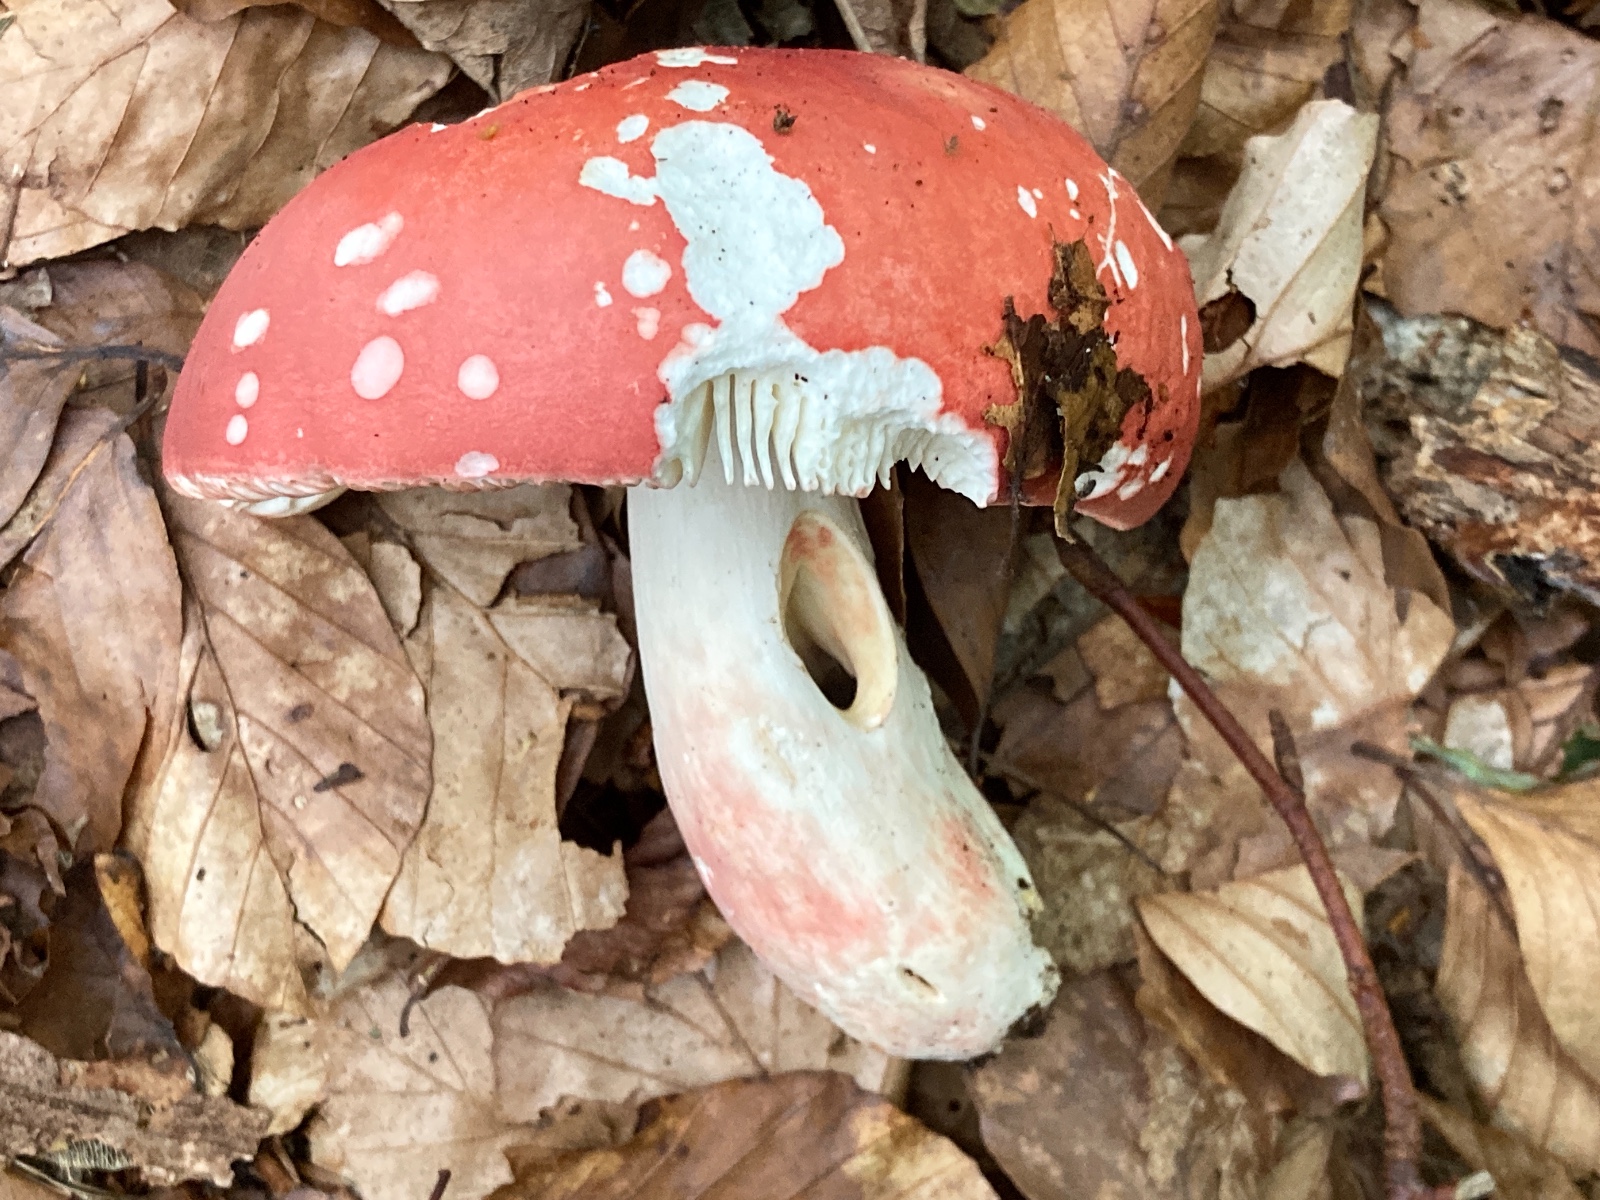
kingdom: Fungi
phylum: Basidiomycota
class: Agaricomycetes
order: Russulales
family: Russulaceae
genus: Russula
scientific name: Russula rosea
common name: fastkødet skørhat
